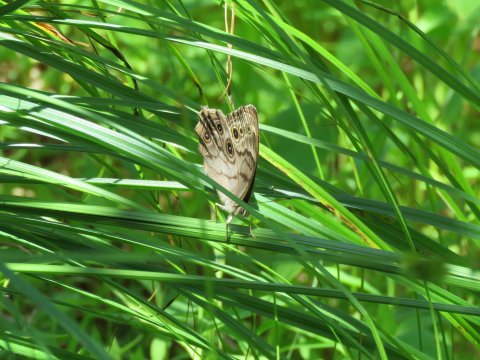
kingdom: Animalia
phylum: Arthropoda
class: Insecta
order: Lepidoptera
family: Nymphalidae
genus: Lethe
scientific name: Lethe anthedon
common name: Northern Pearly-Eye
